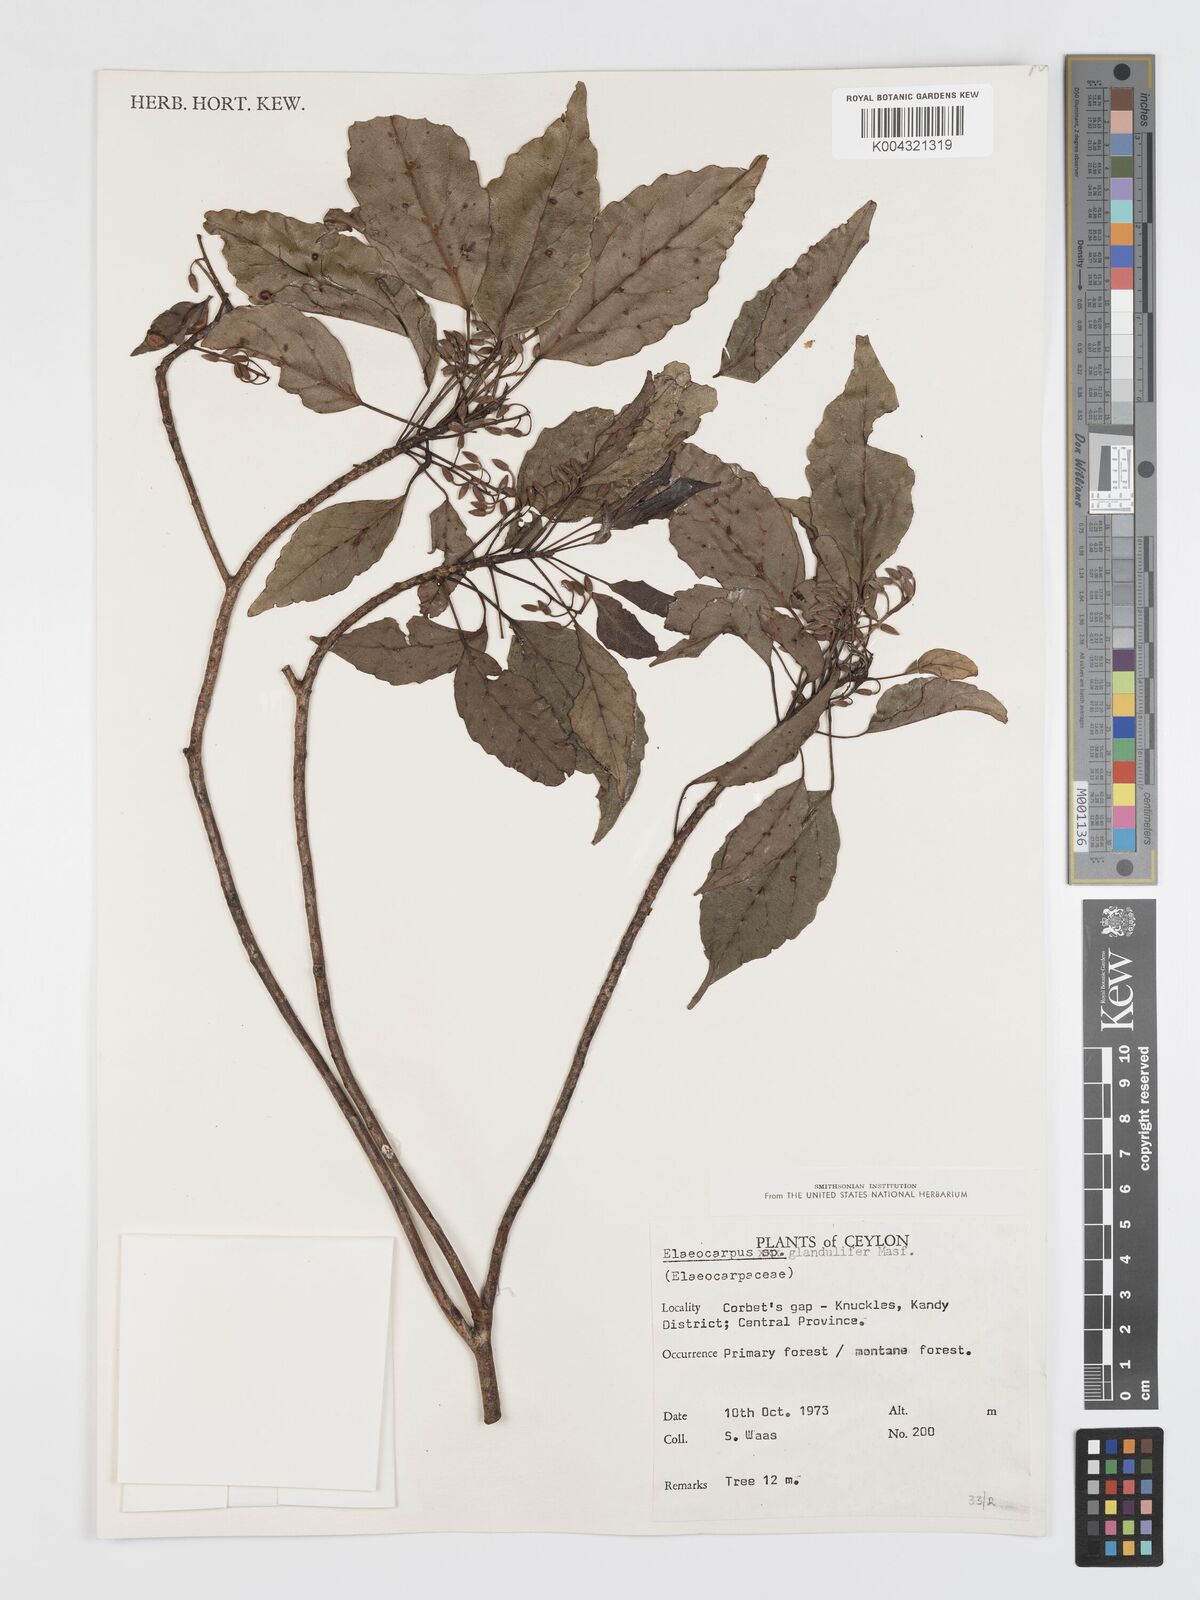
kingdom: Plantae
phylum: Tracheophyta
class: Magnoliopsida
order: Oxalidales
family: Elaeocarpaceae
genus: Elaeocarpus
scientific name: Elaeocarpus glandulifer
